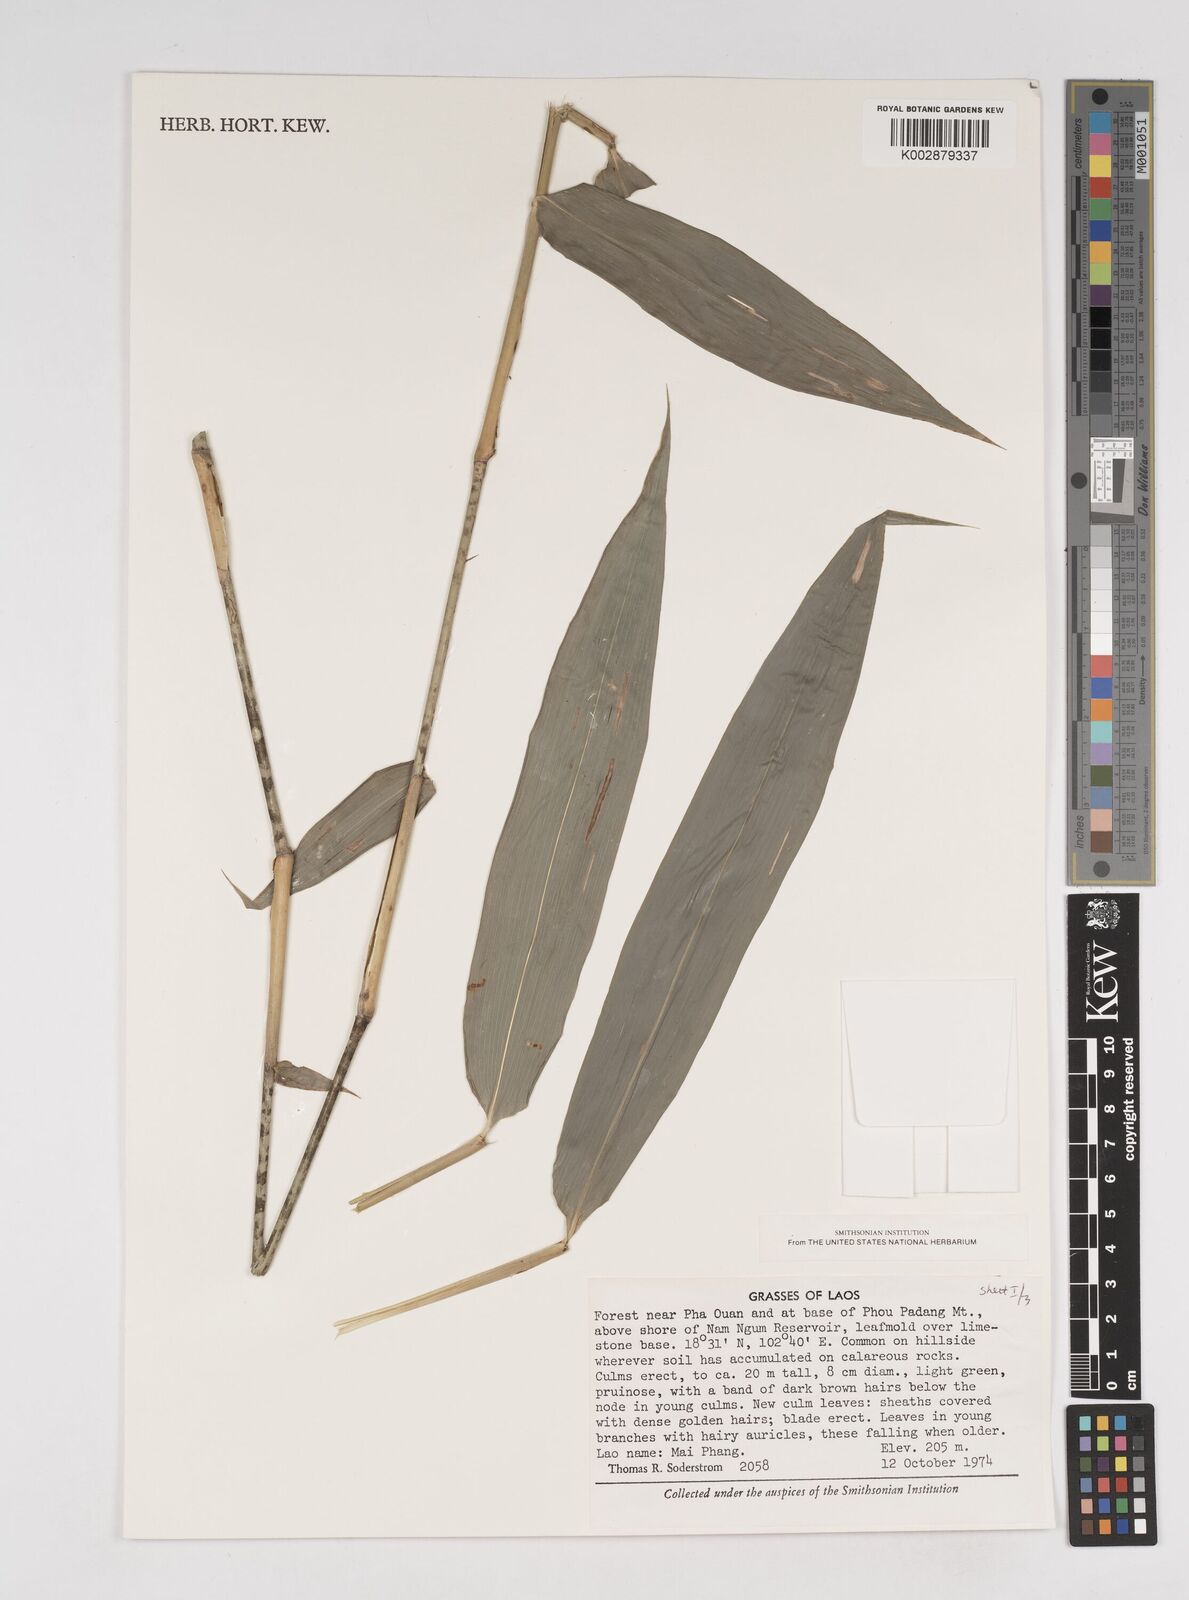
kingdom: Plantae
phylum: Tracheophyta
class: Liliopsida
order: Poales
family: Poaceae
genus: Dendrocalamus
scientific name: Dendrocalamus
